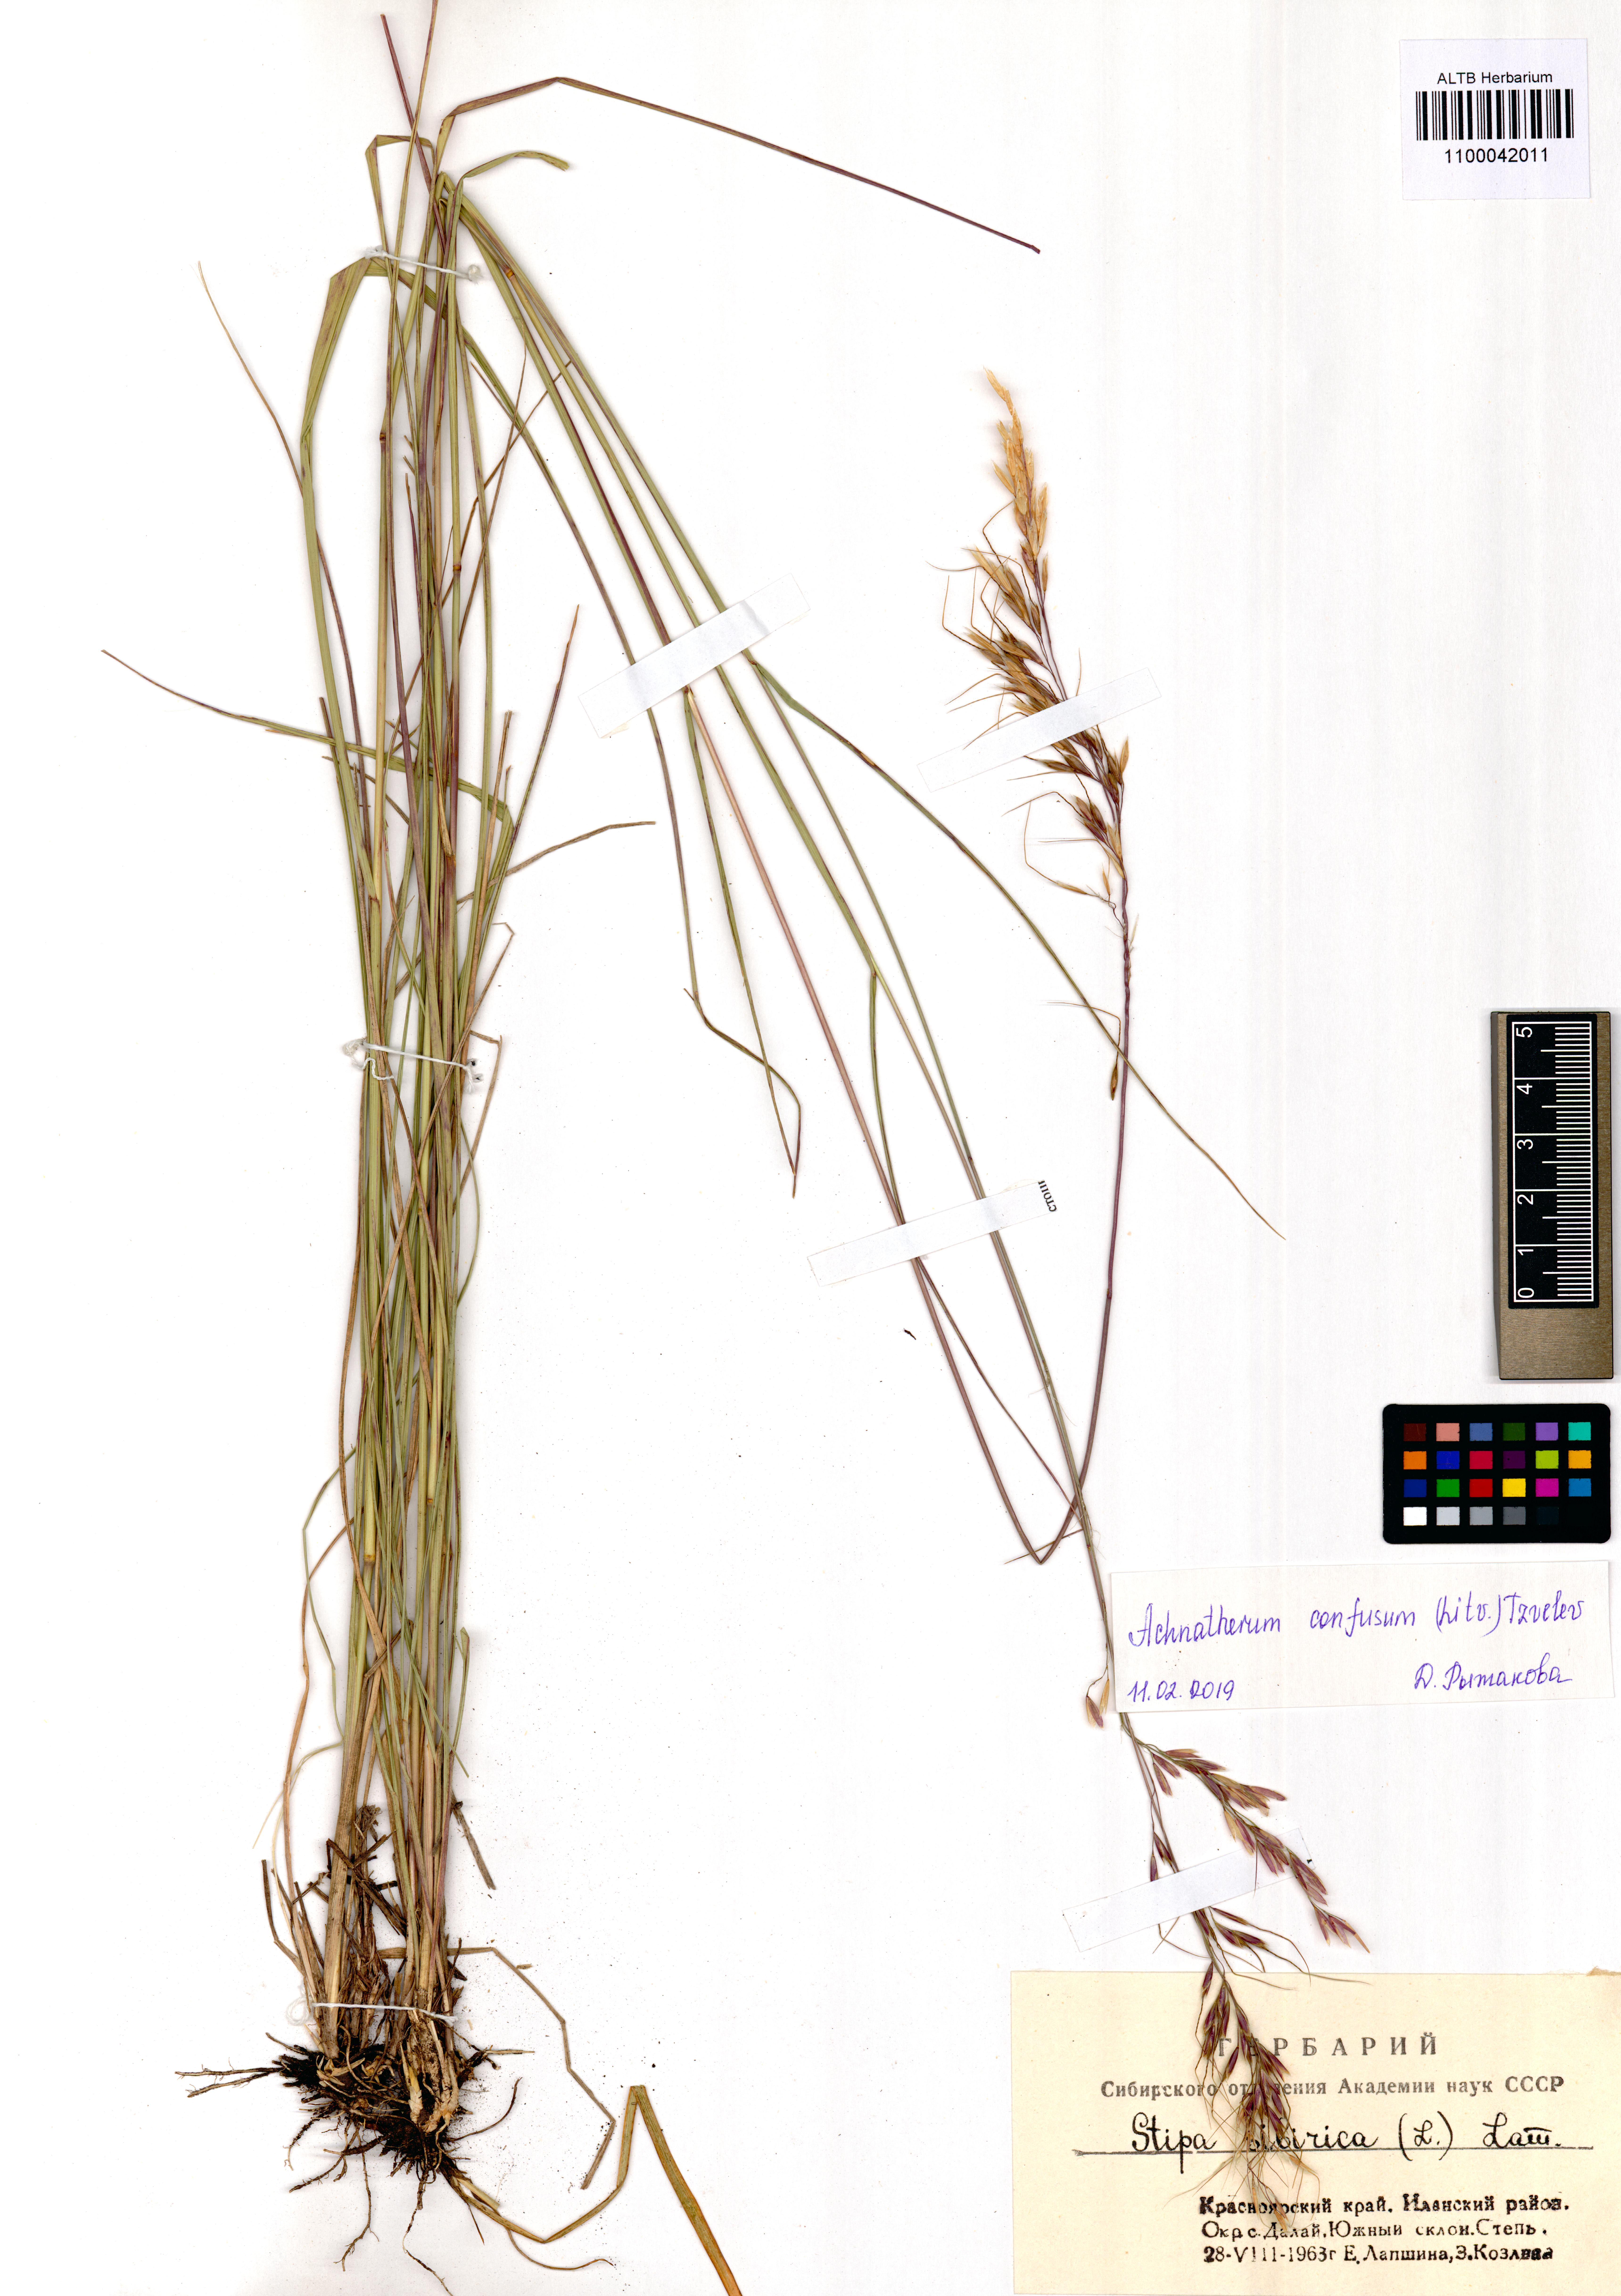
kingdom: Plantae
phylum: Tracheophyta
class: Liliopsida
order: Poales
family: Poaceae
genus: Achnatherum
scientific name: Achnatherum confusum
